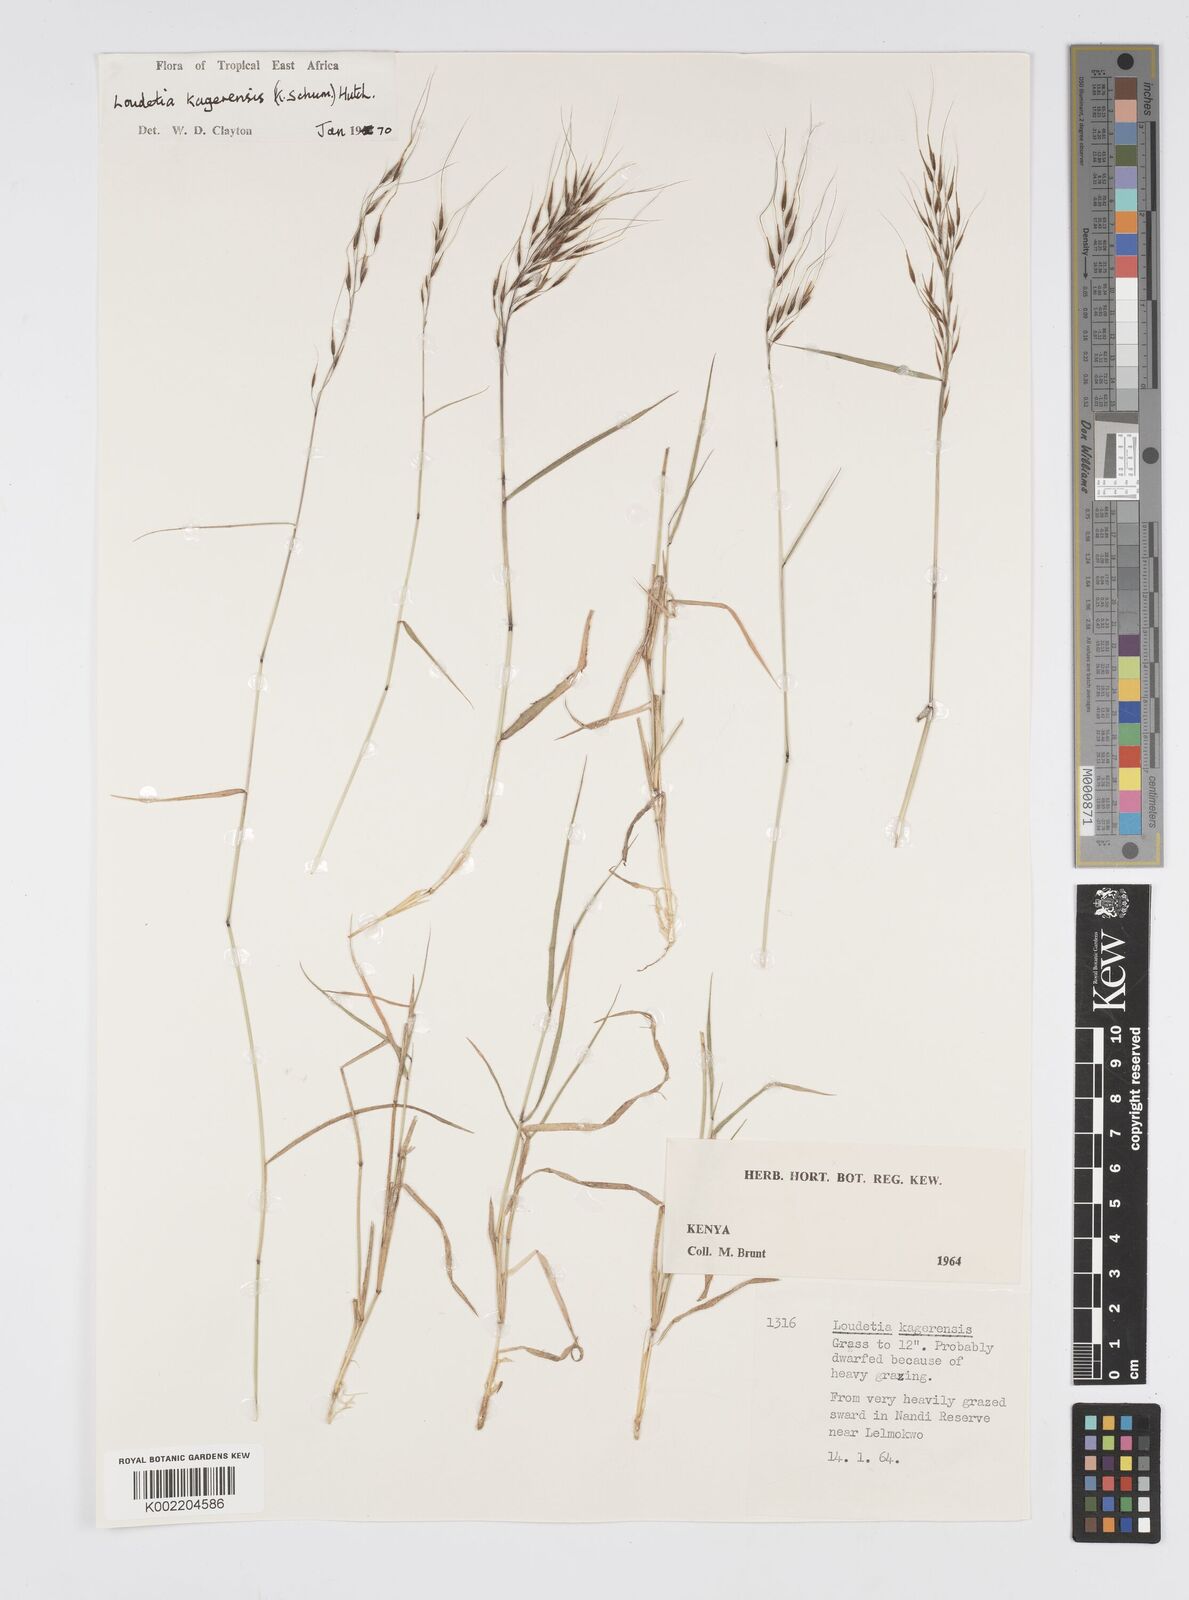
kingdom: Plantae
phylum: Tracheophyta
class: Liliopsida
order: Poales
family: Poaceae
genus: Loudetia
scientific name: Loudetia kagerensis
